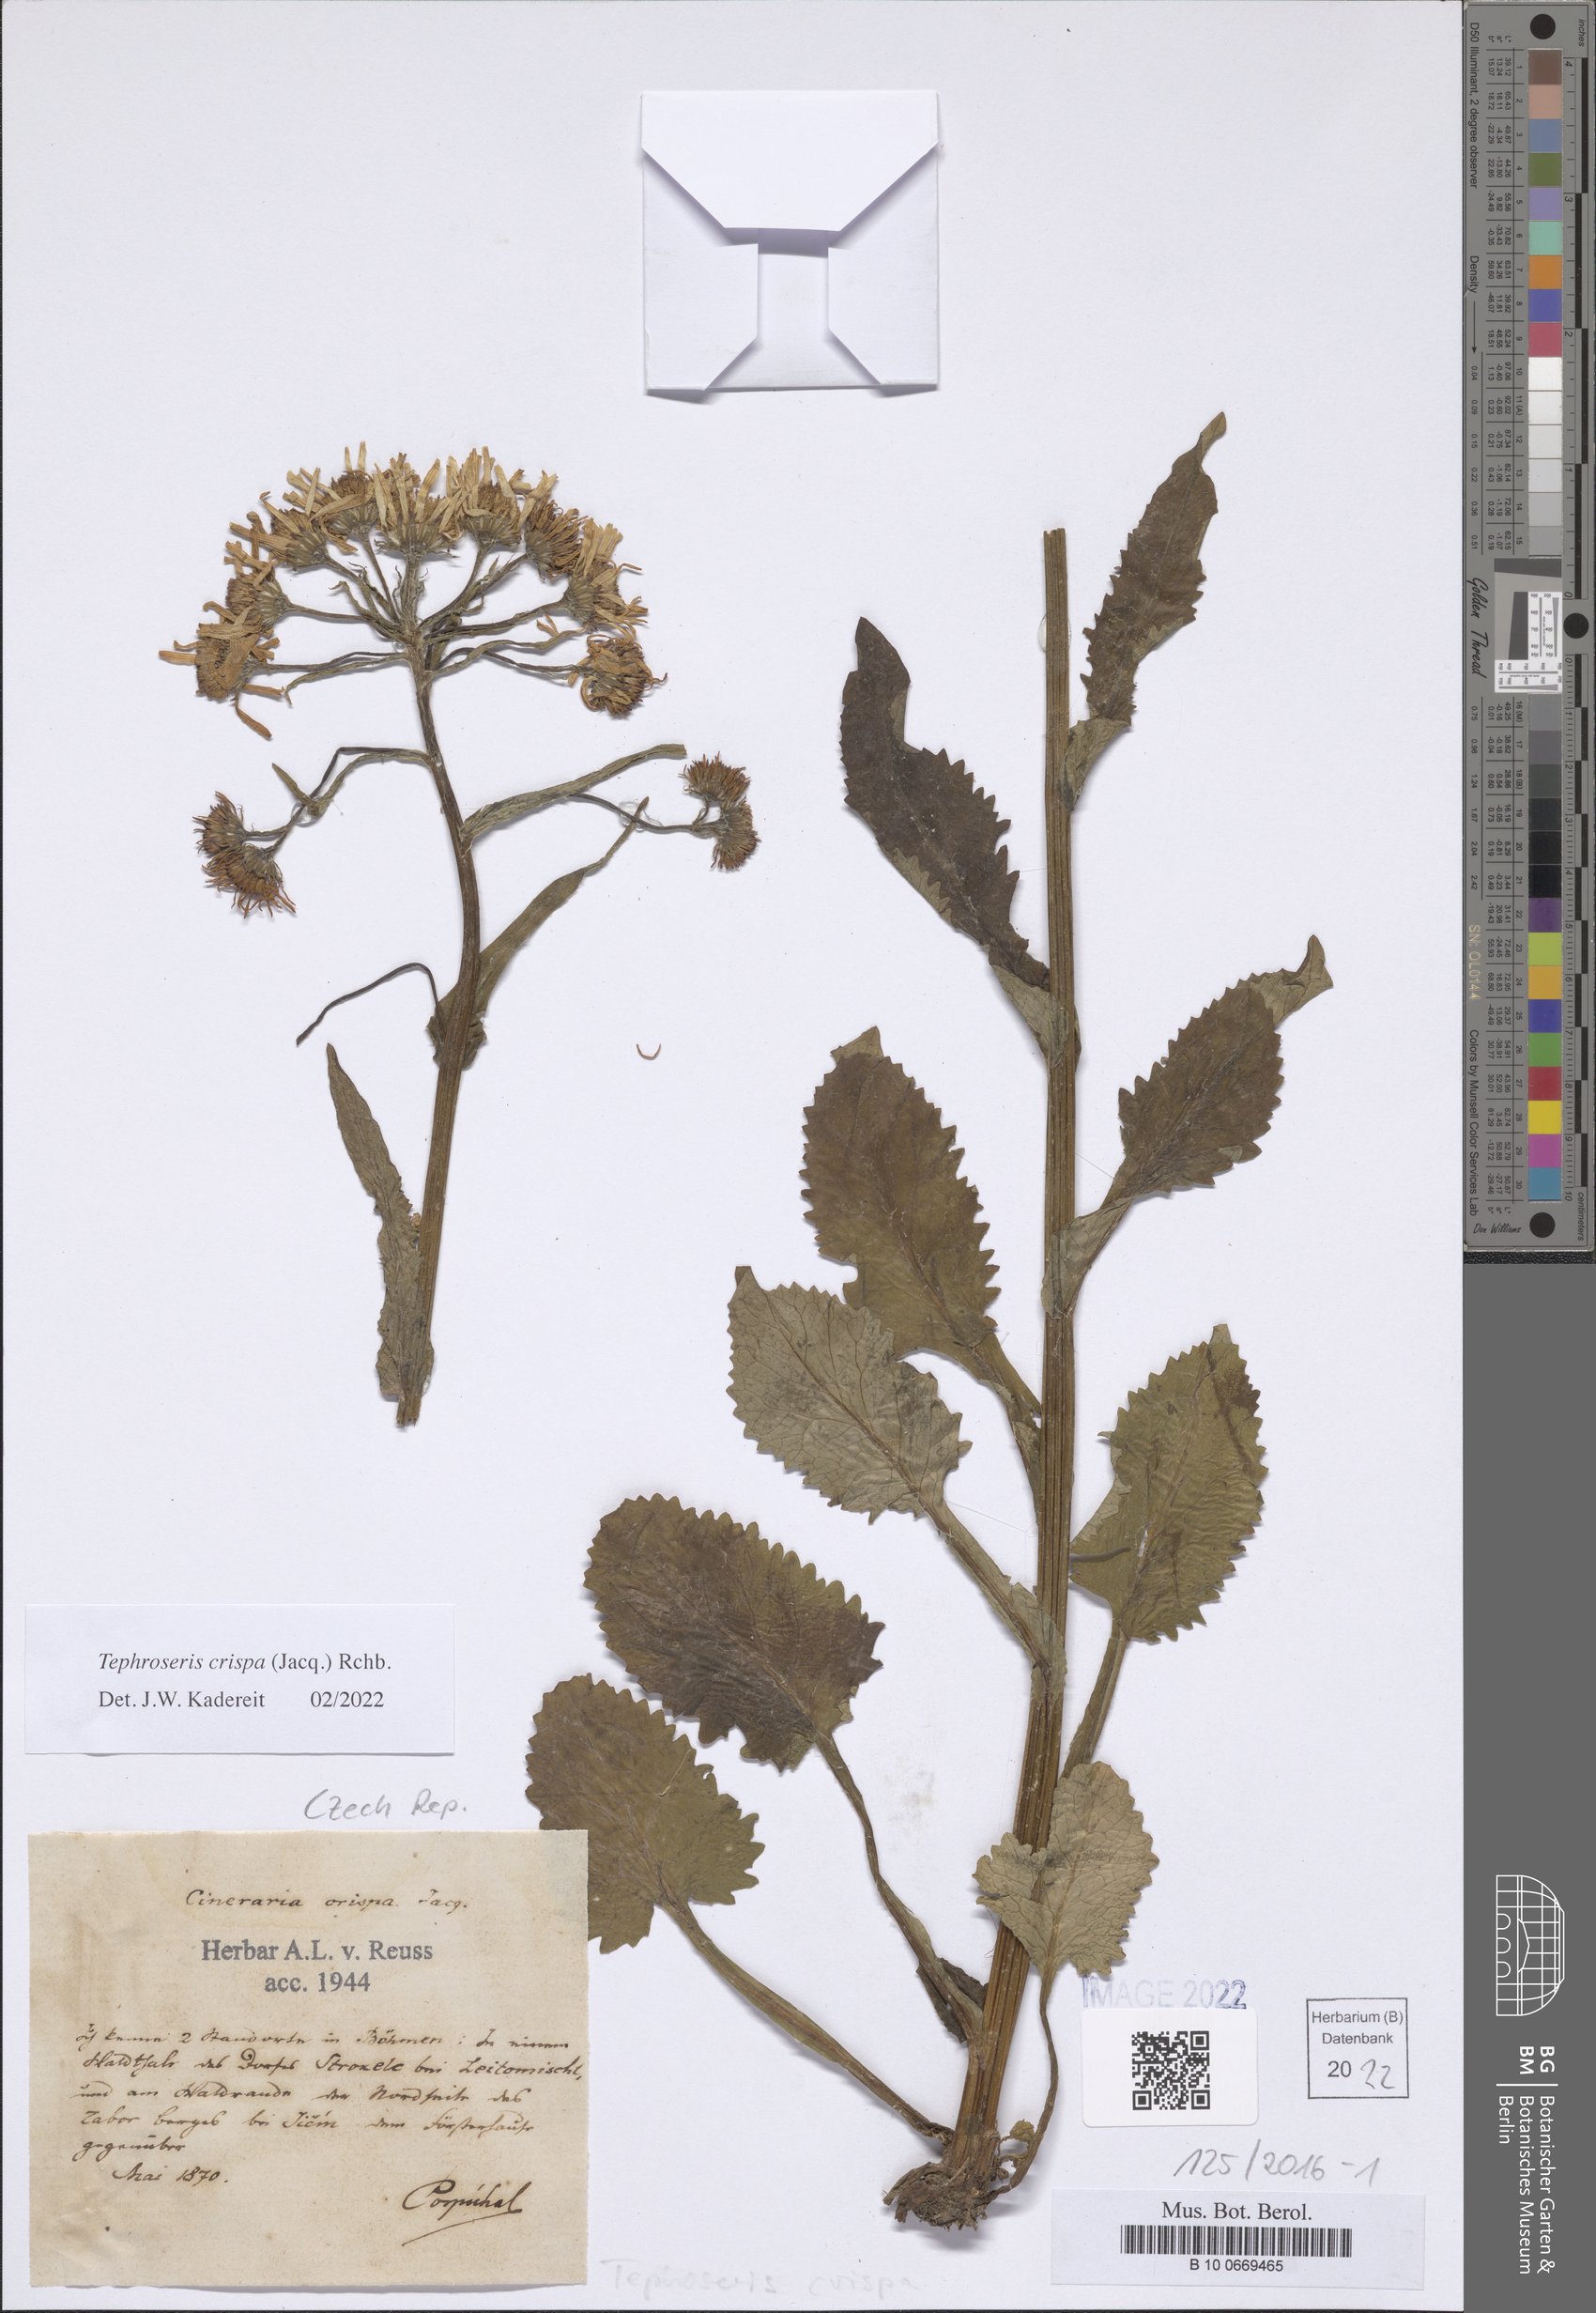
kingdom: Plantae
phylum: Tracheophyta
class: Magnoliopsida
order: Asterales
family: Asteraceae
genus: Tephroseris
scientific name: Tephroseris crispa
